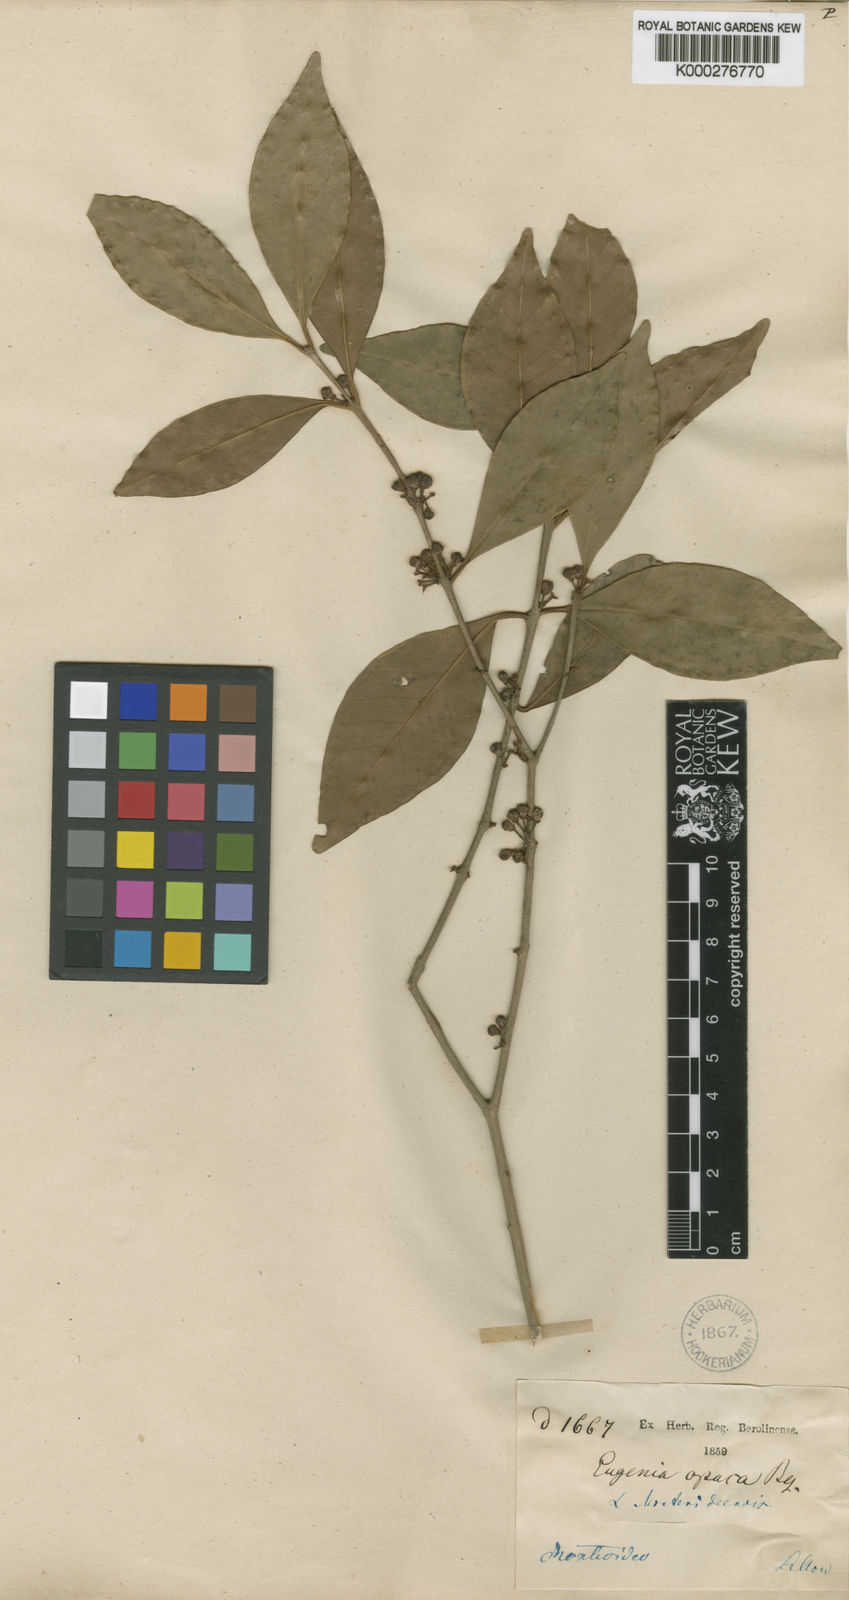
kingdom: Plantae
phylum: Tracheophyta
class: Magnoliopsida
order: Myrtales
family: Myrtaceae
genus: Eugenia
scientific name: Eugenia uruguayensis
